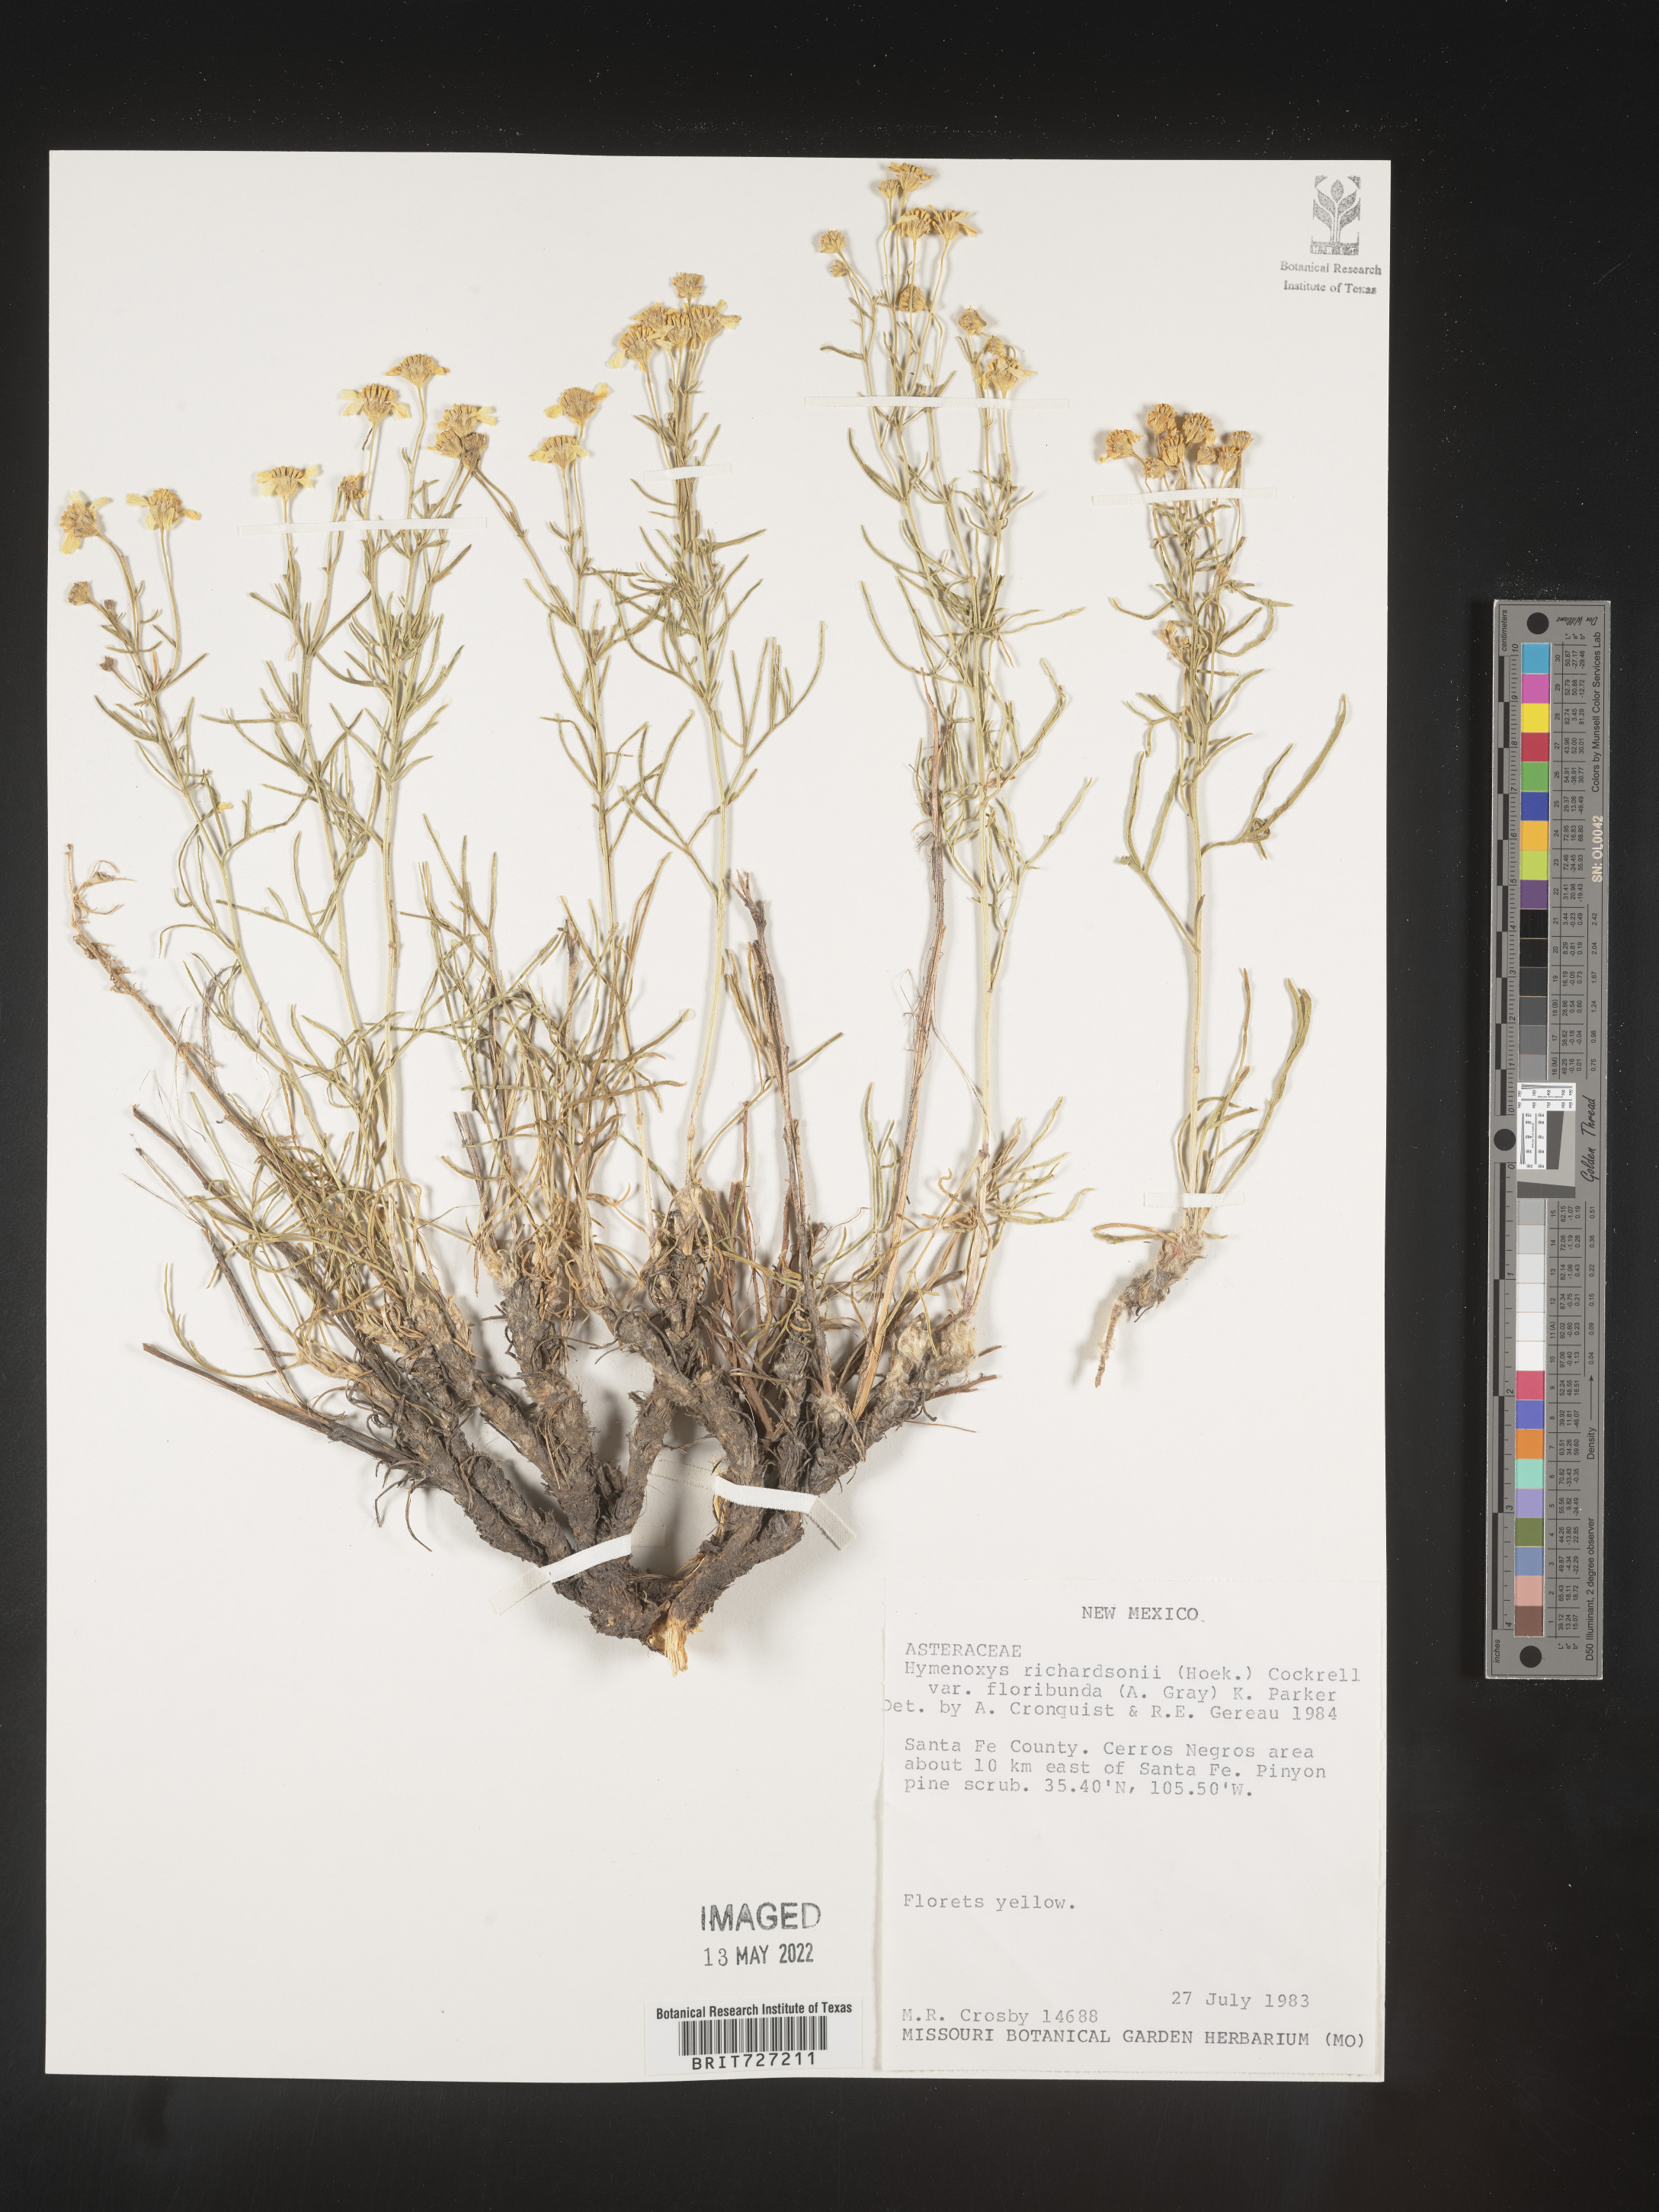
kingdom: Plantae
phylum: Tracheophyta
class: Magnoliopsida
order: Asterales
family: Asteraceae
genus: Hymenoxys
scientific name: Hymenoxys richardsonii
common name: Pingue rubberweed
